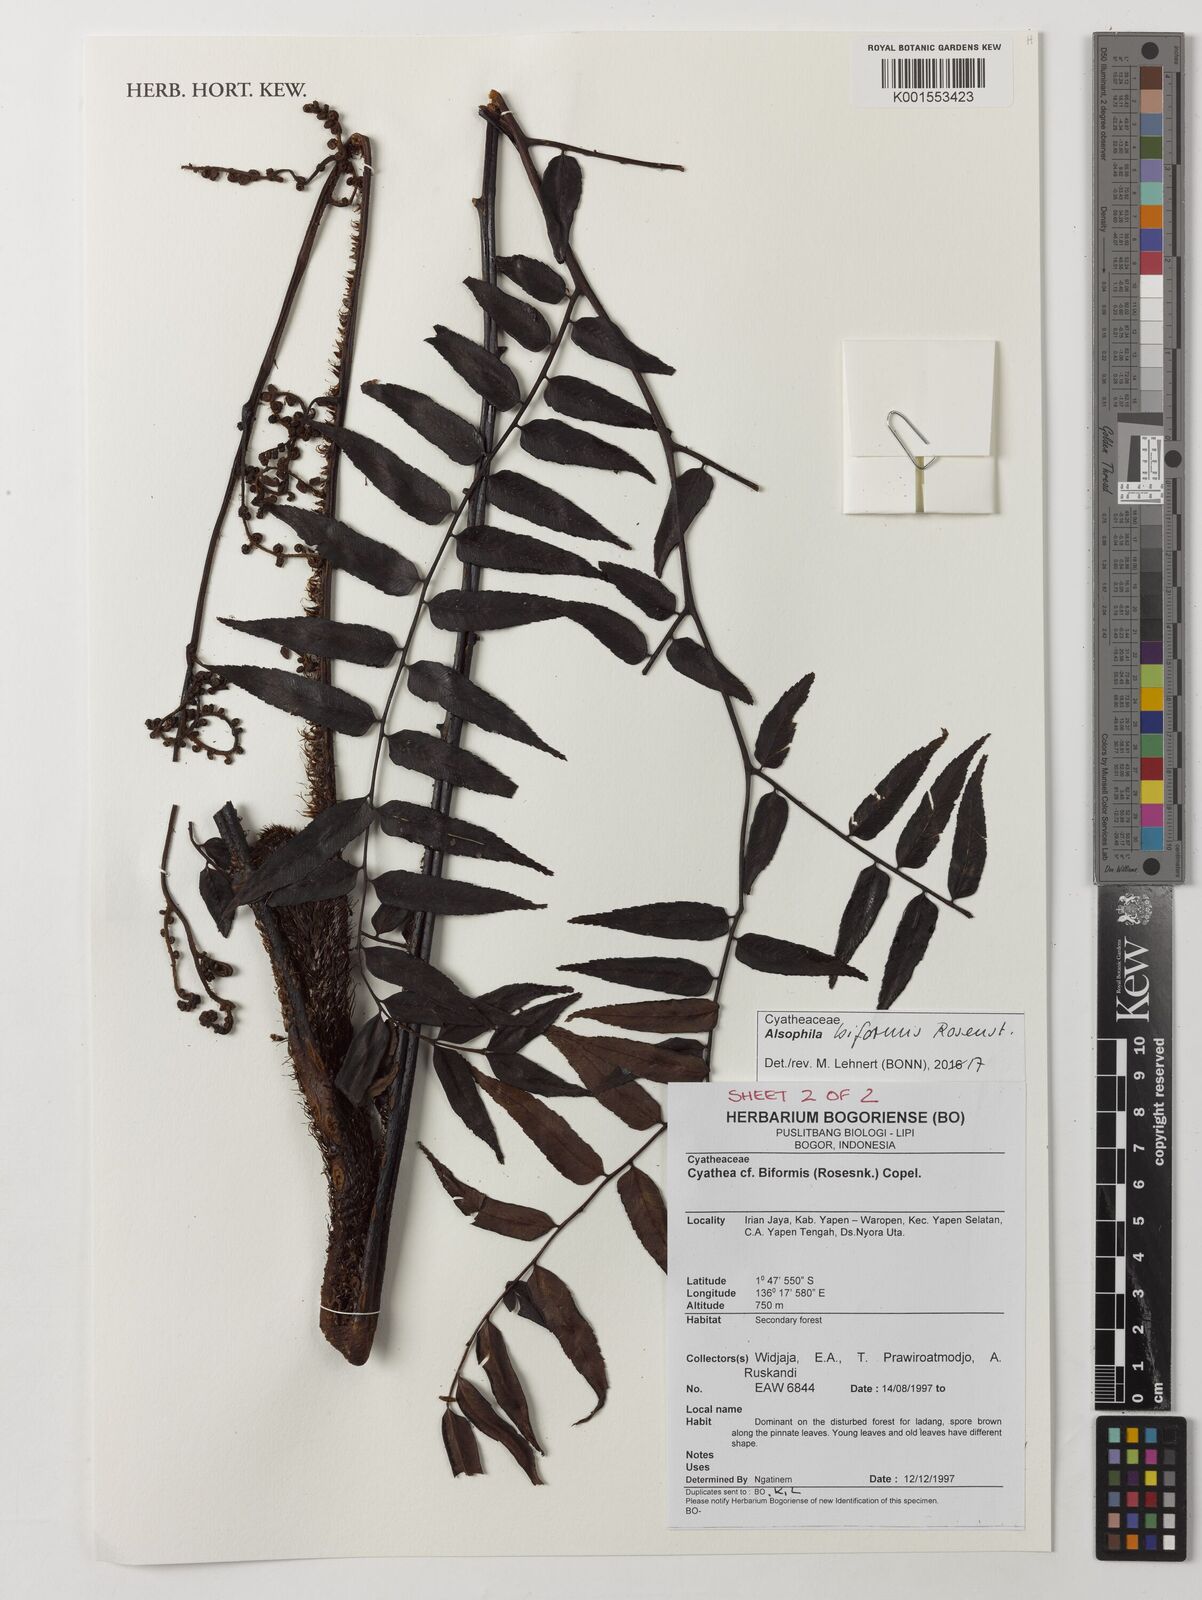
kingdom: Plantae
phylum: Tracheophyta
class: Polypodiopsida
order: Cyatheales
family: Cyatheaceae
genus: Gymnosphaera
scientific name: Gymnosphaera biformis
